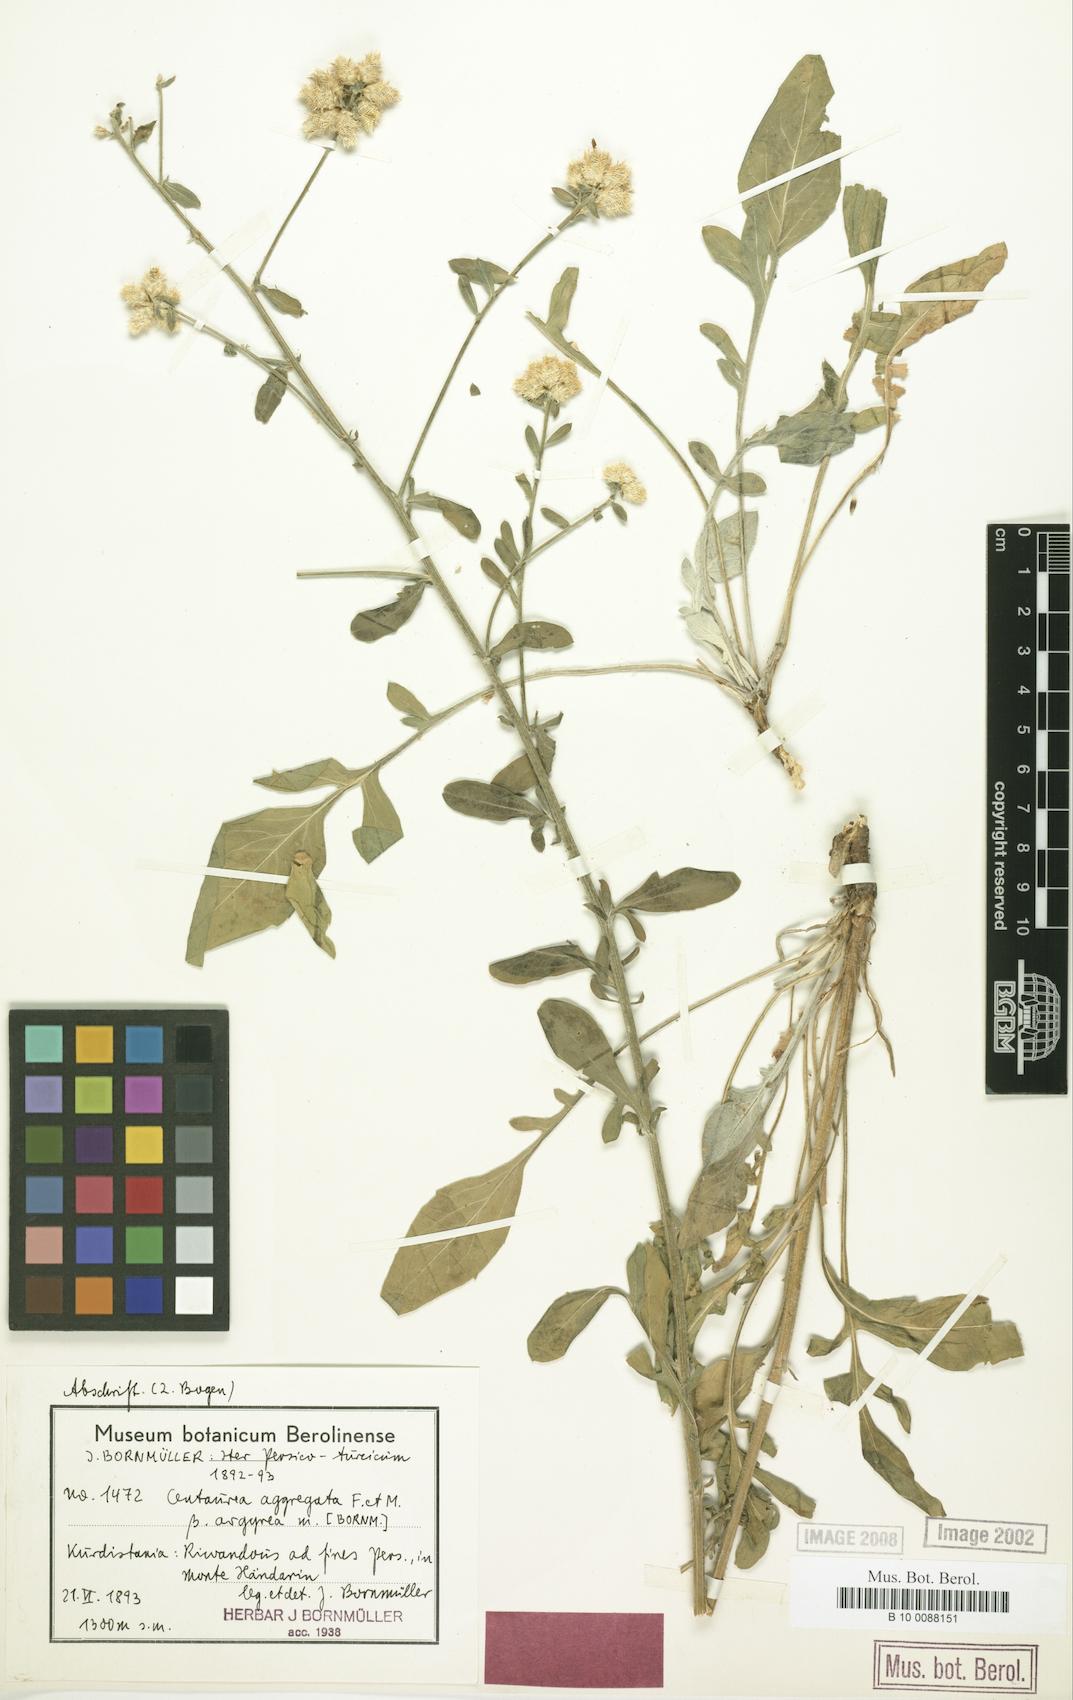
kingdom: Plantae
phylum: Tracheophyta
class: Magnoliopsida
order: Asterales
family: Asteraceae
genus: Centaurea
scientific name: Centaurea aggregata
